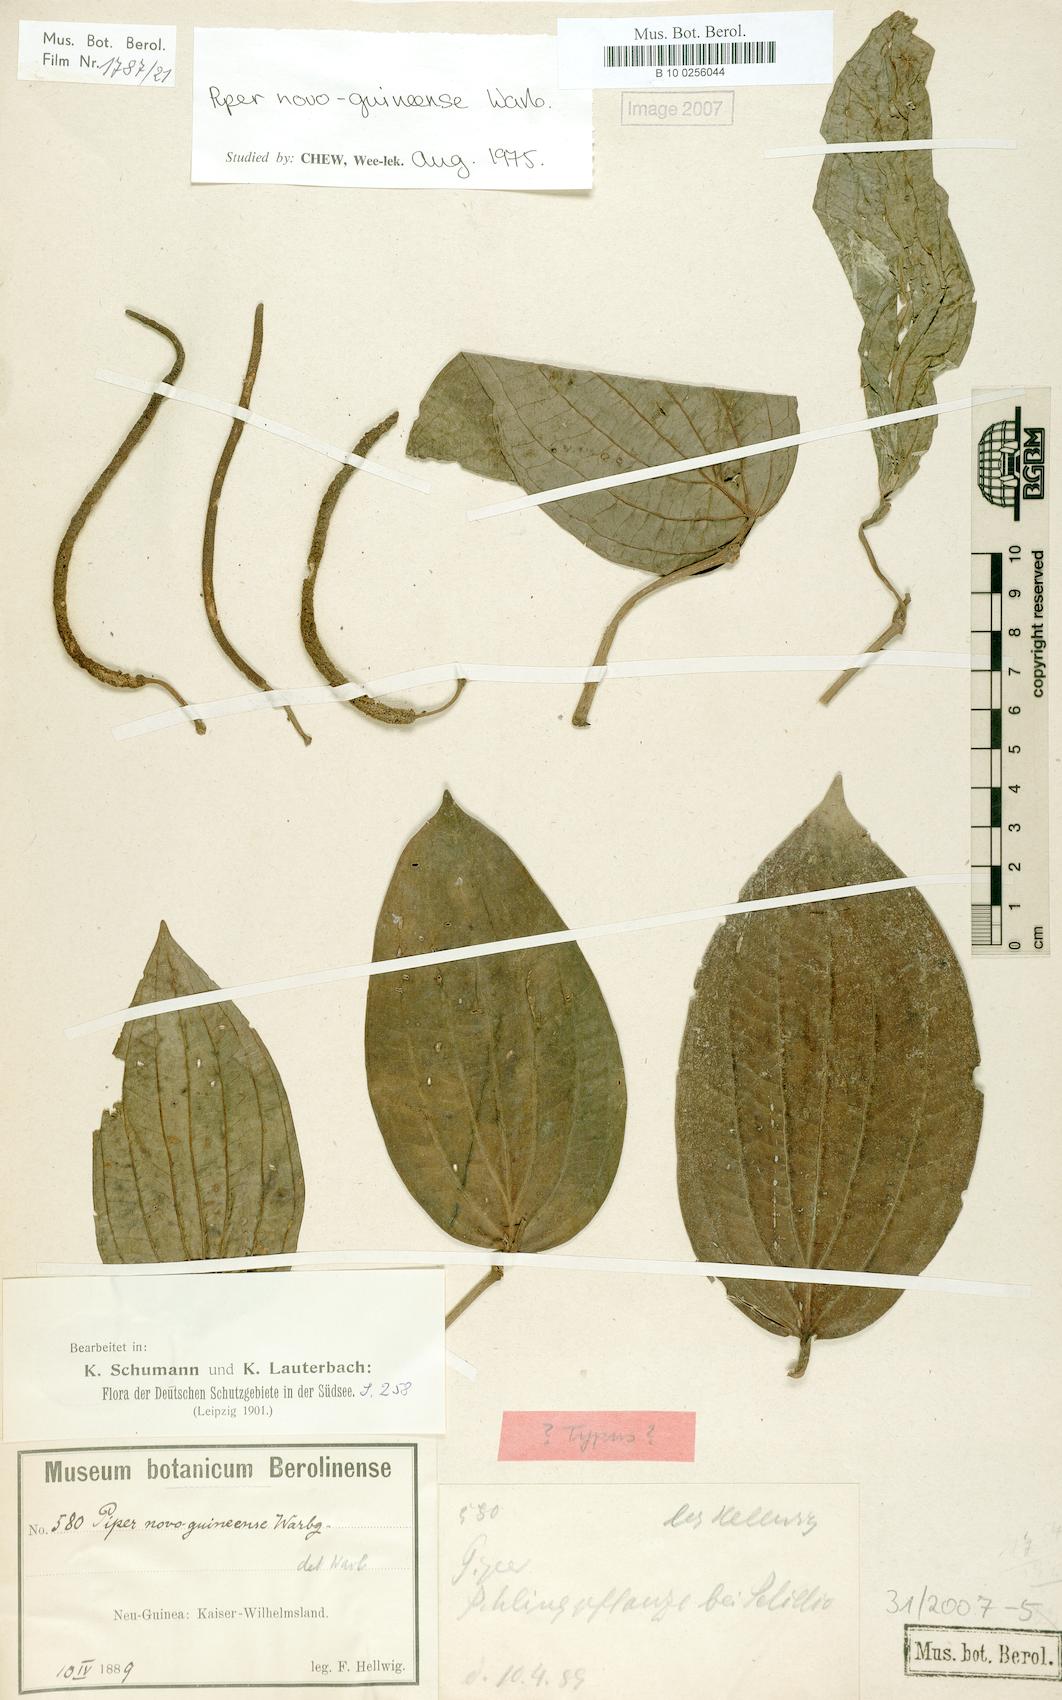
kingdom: Plantae
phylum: Tracheophyta
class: Magnoliopsida
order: Piperales
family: Piperaceae
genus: Piper
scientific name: Piper macropiper
